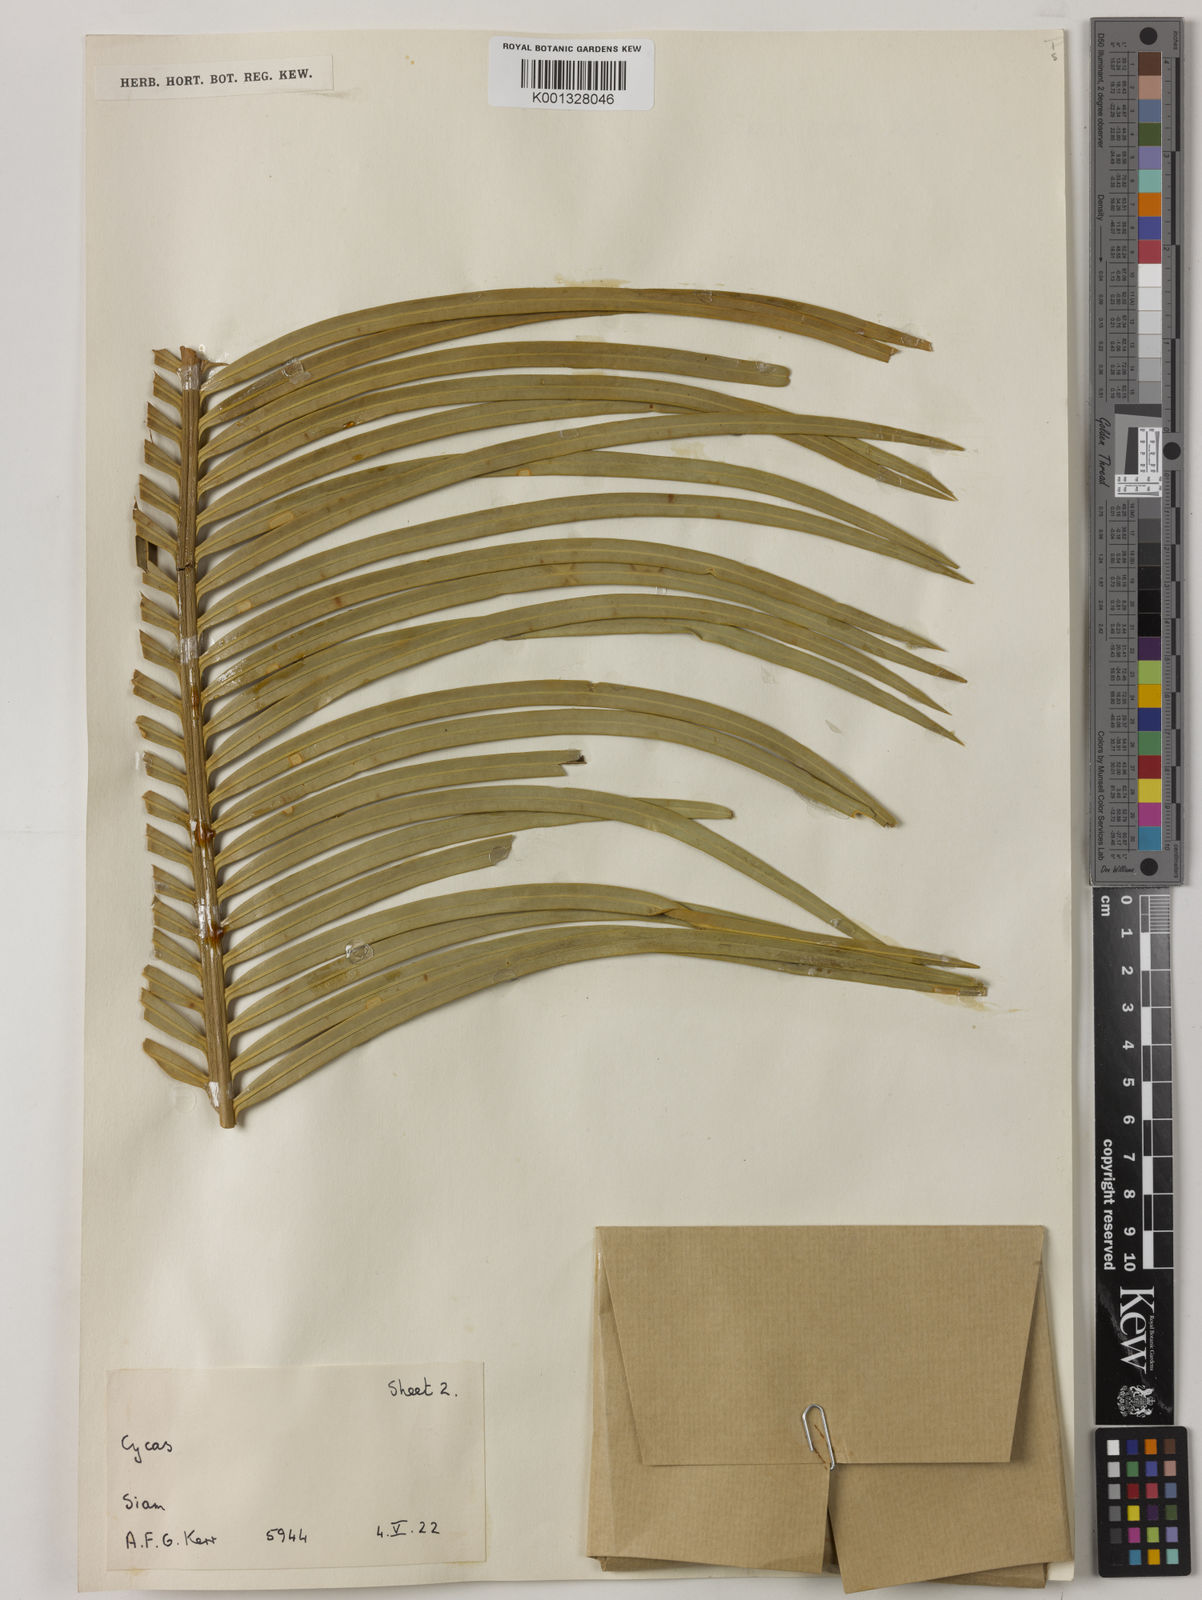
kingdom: Plantae
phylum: Tracheophyta
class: Cycadopsida
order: Cycadales
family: Cycadaceae
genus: Cycas
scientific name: Cycas
